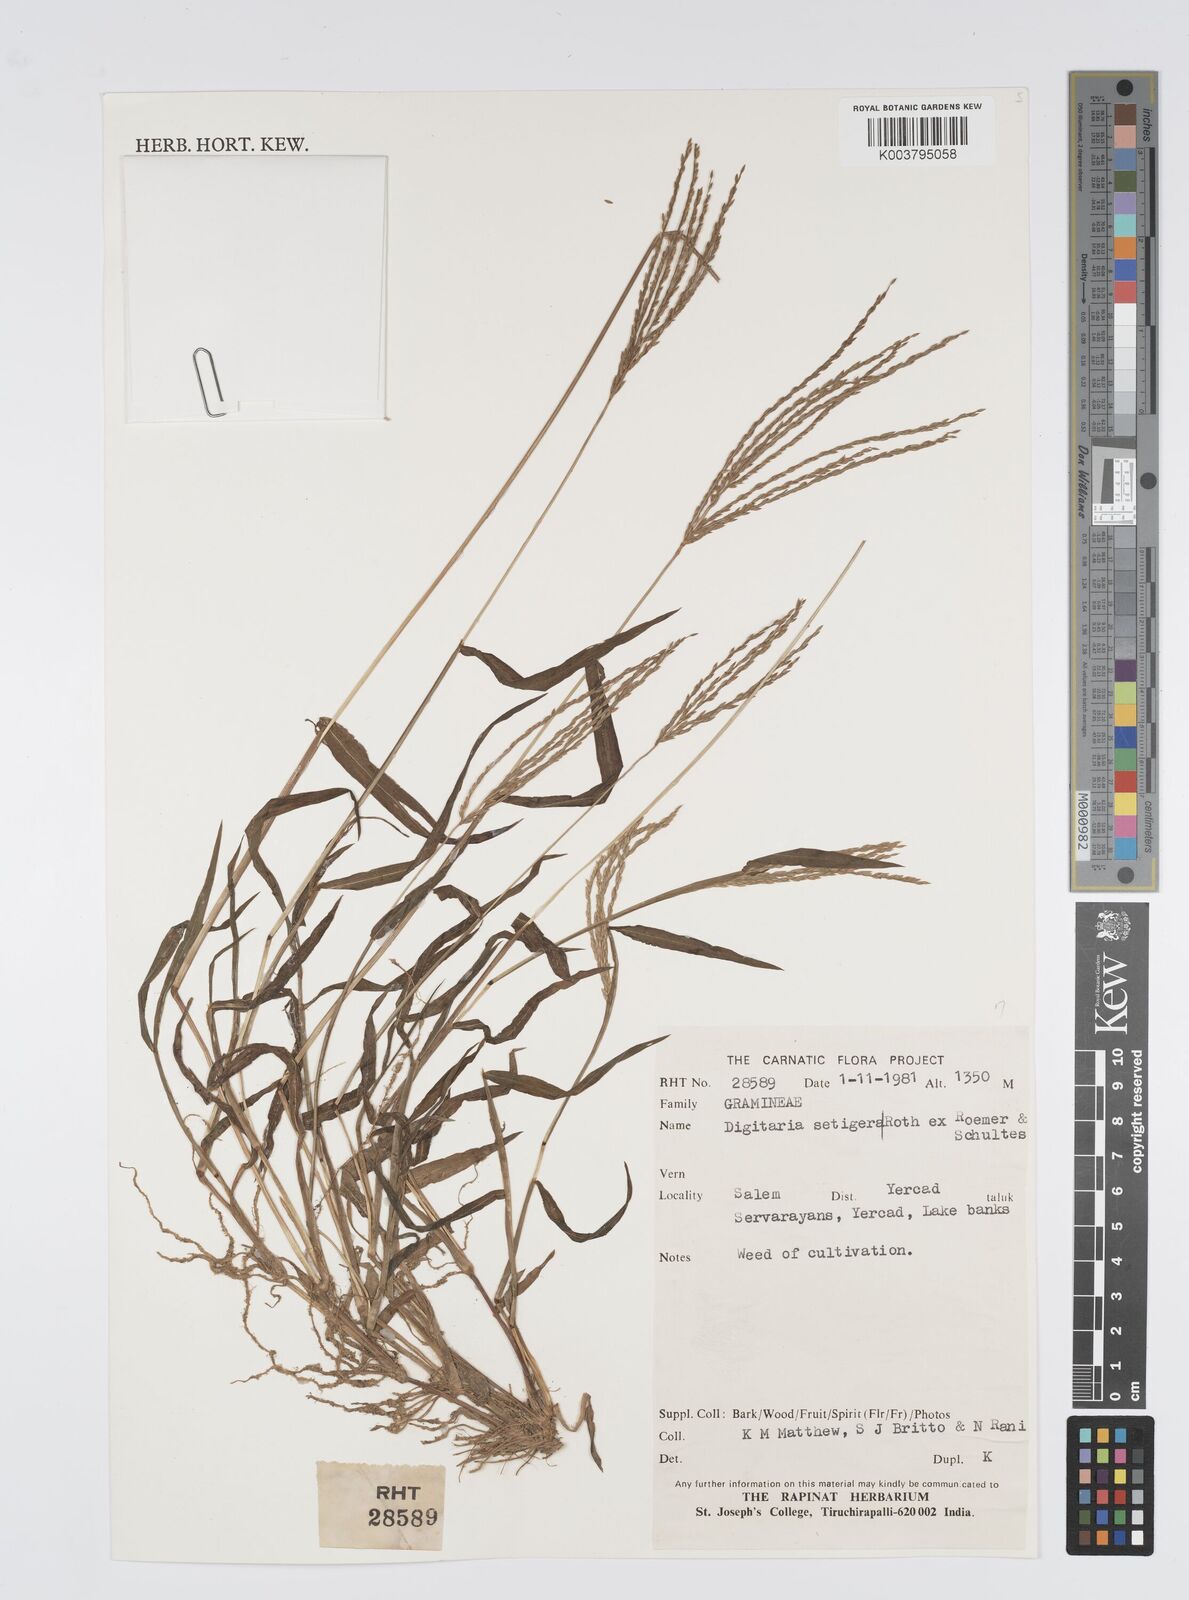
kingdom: Plantae
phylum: Tracheophyta
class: Liliopsida
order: Poales
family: Poaceae
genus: Digitaria
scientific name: Digitaria setigera
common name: East indian crabgrass
